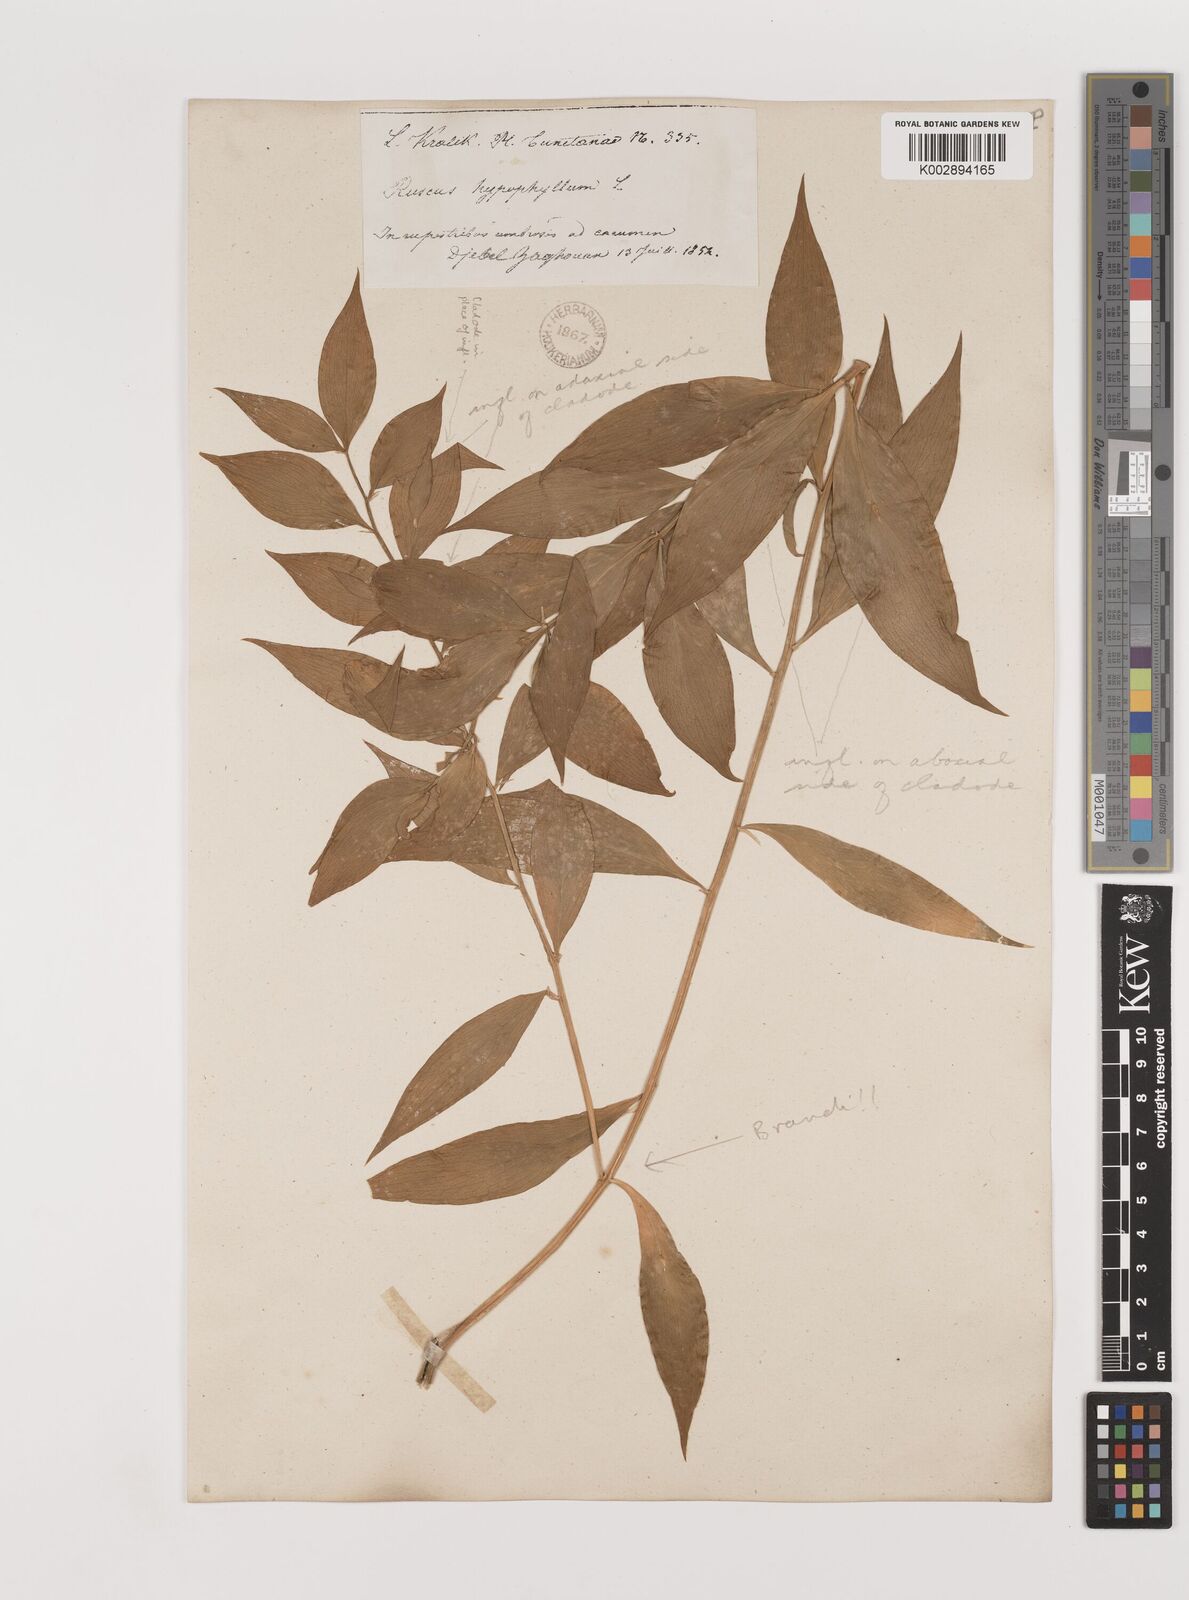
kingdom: Plantae
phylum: Tracheophyta
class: Liliopsida
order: Asparagales
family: Asparagaceae
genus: Ruscus
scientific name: Ruscus hypophyllum
